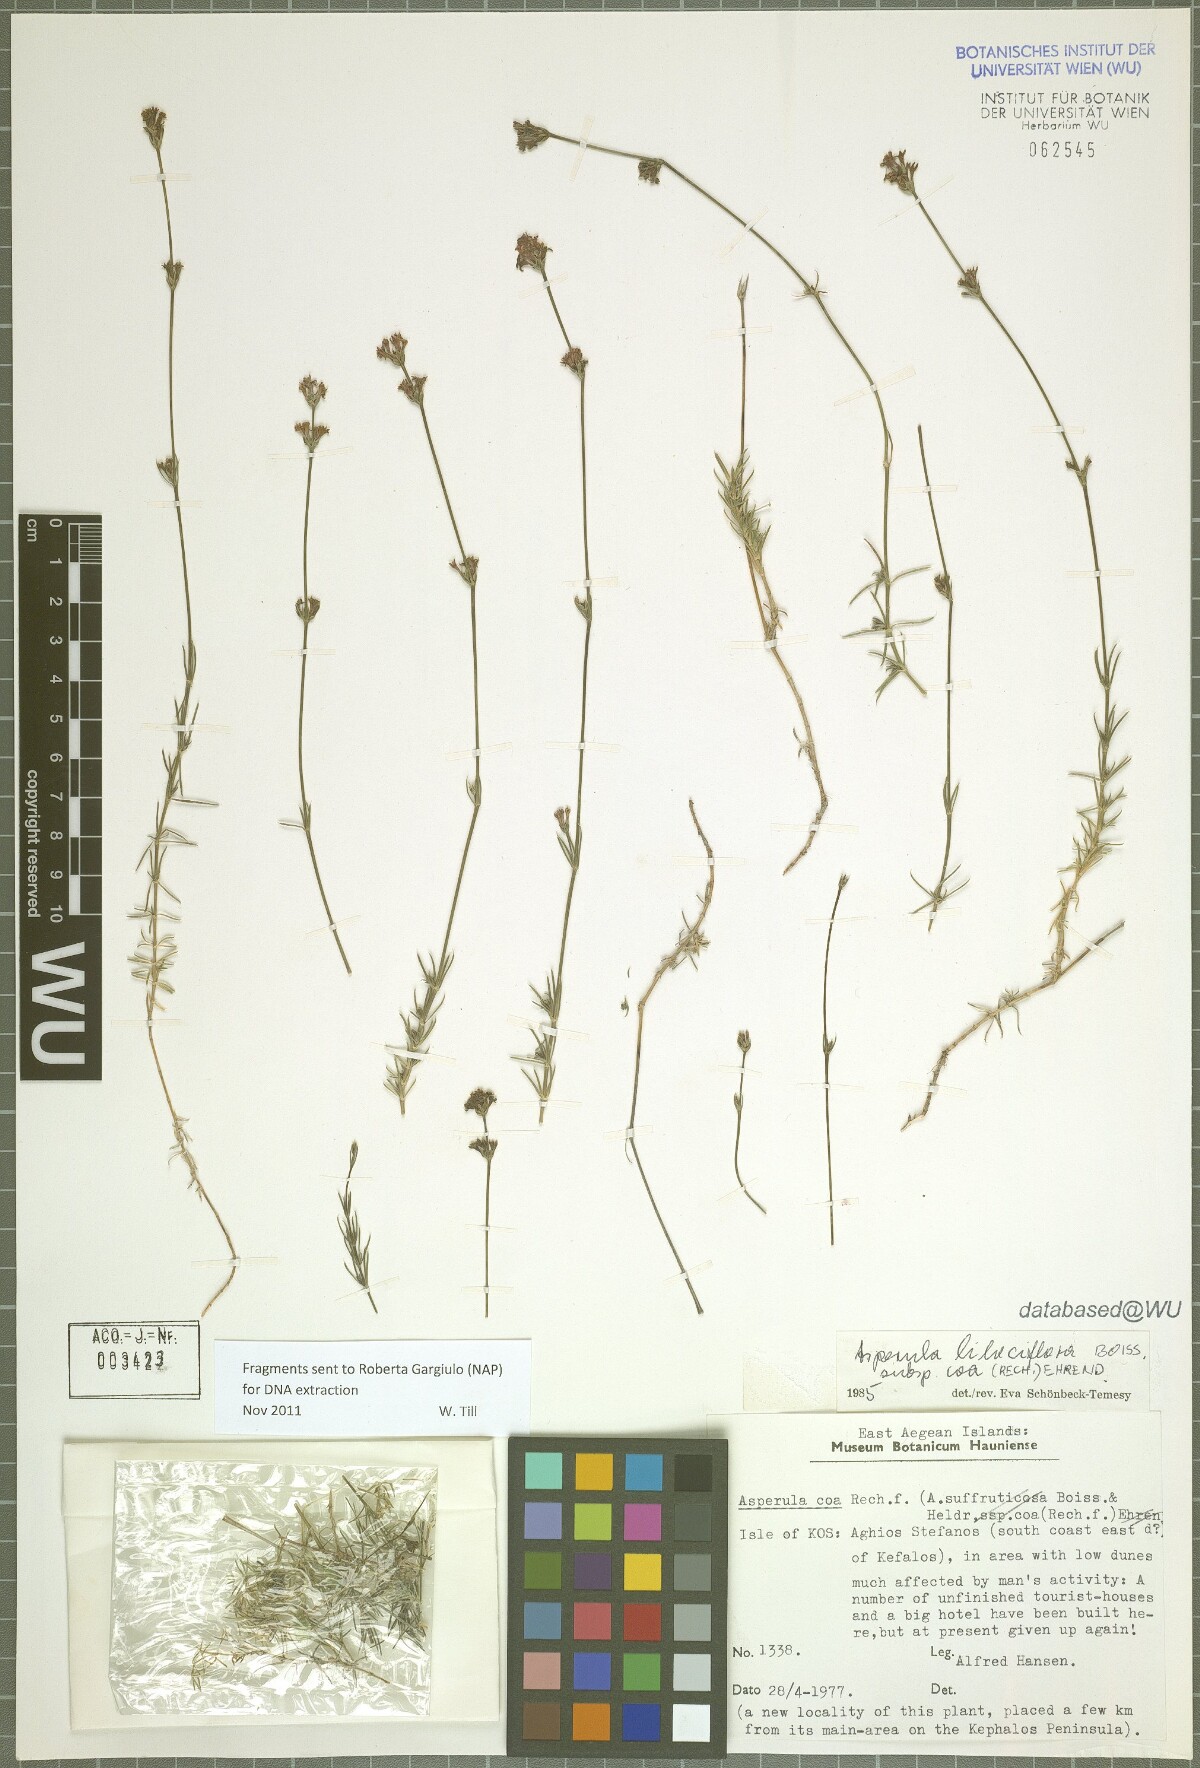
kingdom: Plantae
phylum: Tracheophyta
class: Magnoliopsida
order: Gentianales
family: Rubiaceae
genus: Cynanchica
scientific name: Cynanchica lilaciflora
